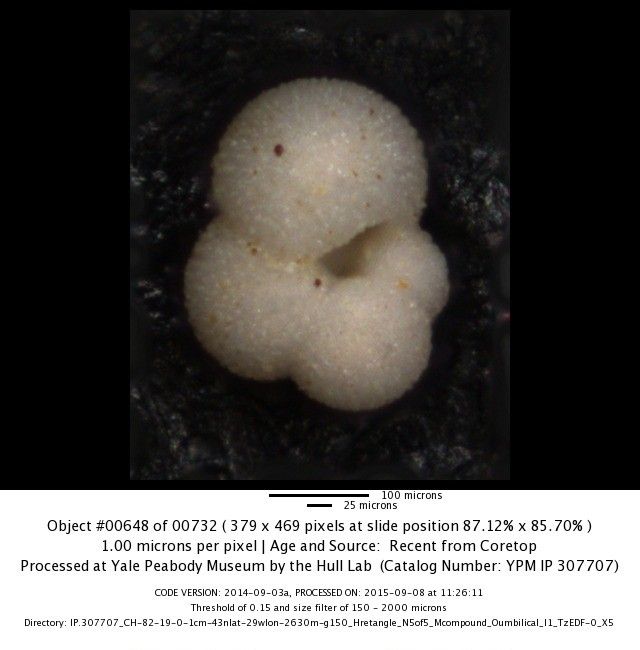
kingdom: Chromista
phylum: Foraminifera
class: Globothalamea
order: Rotaliida
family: Globigerinidae
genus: Globigerina
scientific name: Globigerina bulloides
